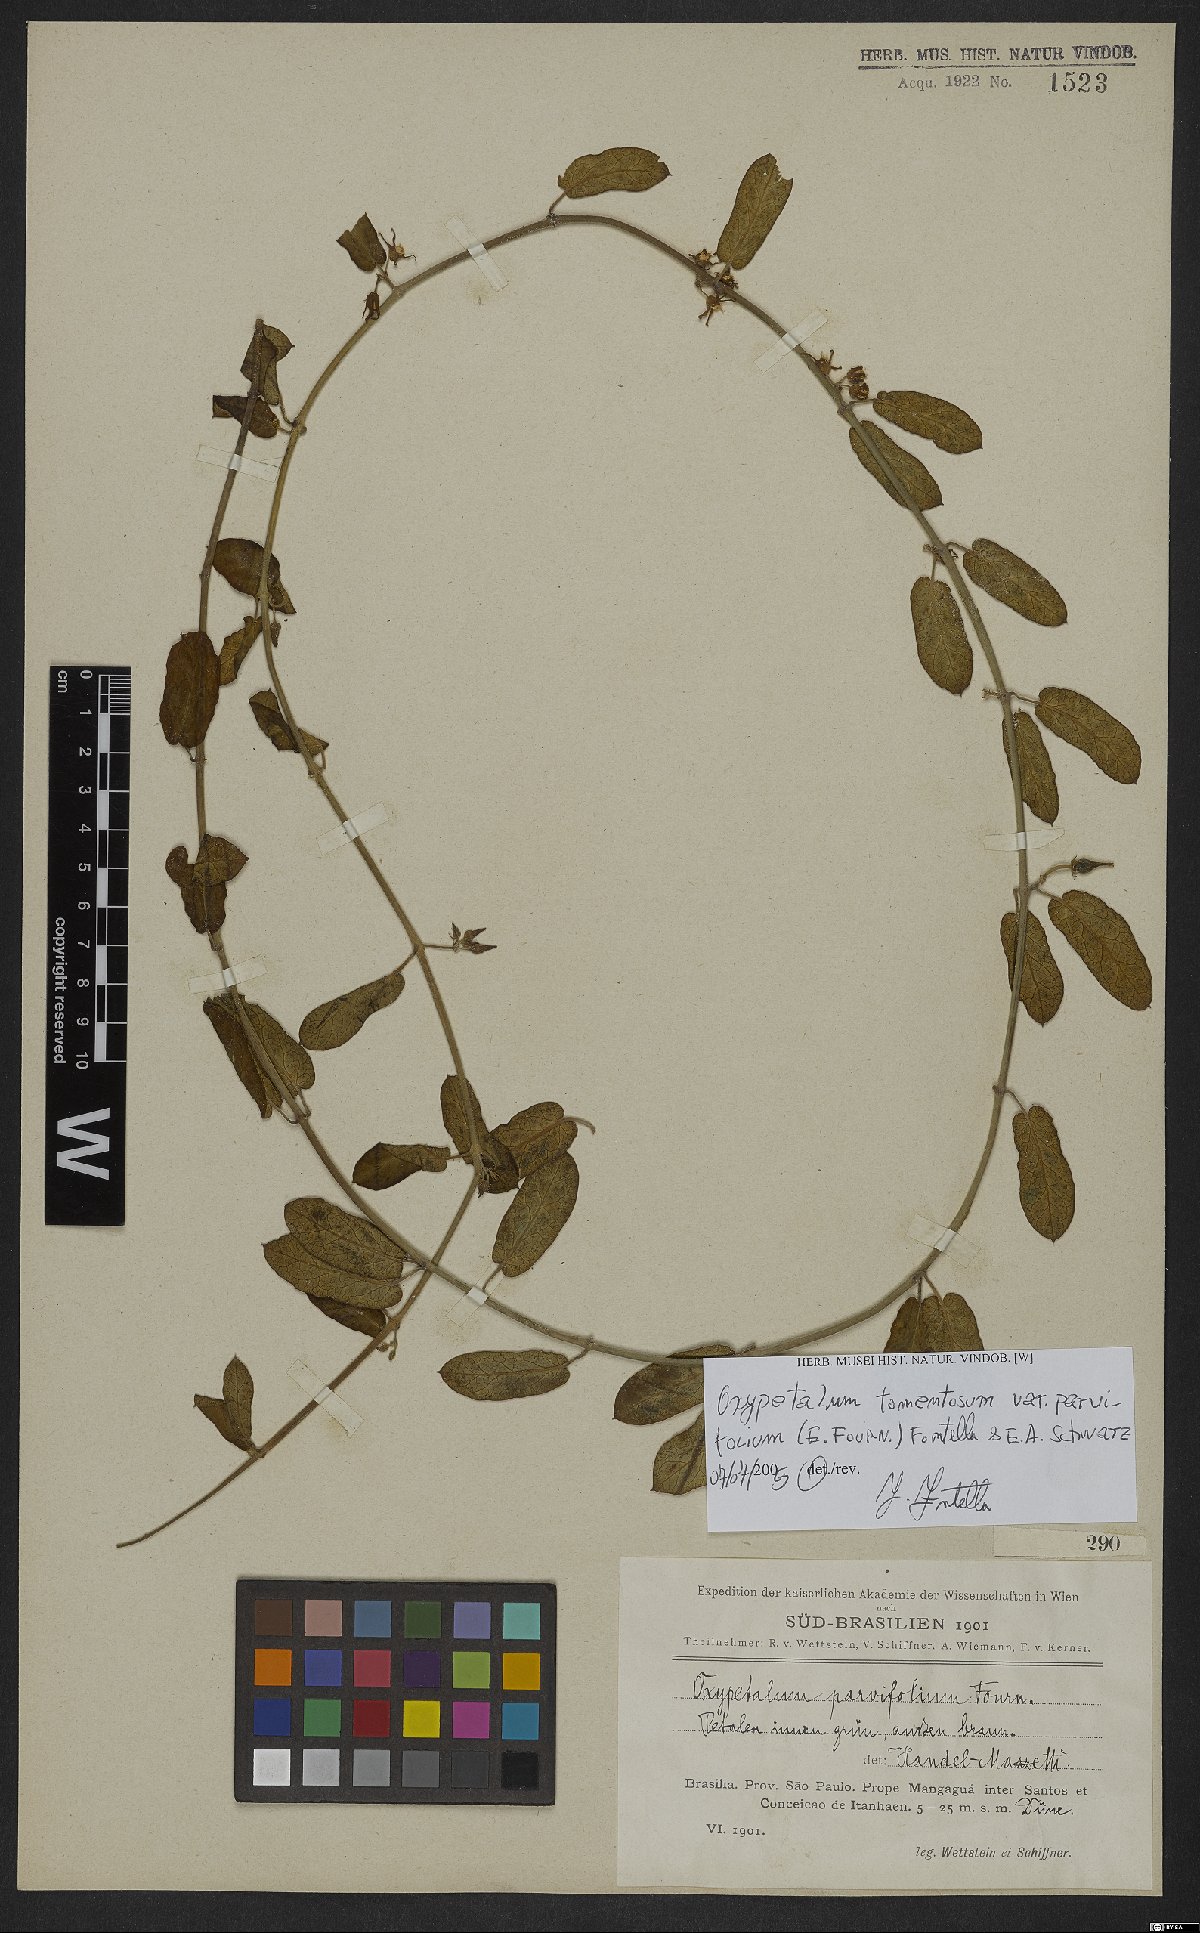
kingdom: Plantae
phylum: Tracheophyta
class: Magnoliopsida
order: Gentianales
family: Apocynaceae
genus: Oxypetalum
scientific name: Oxypetalum tomentosum
